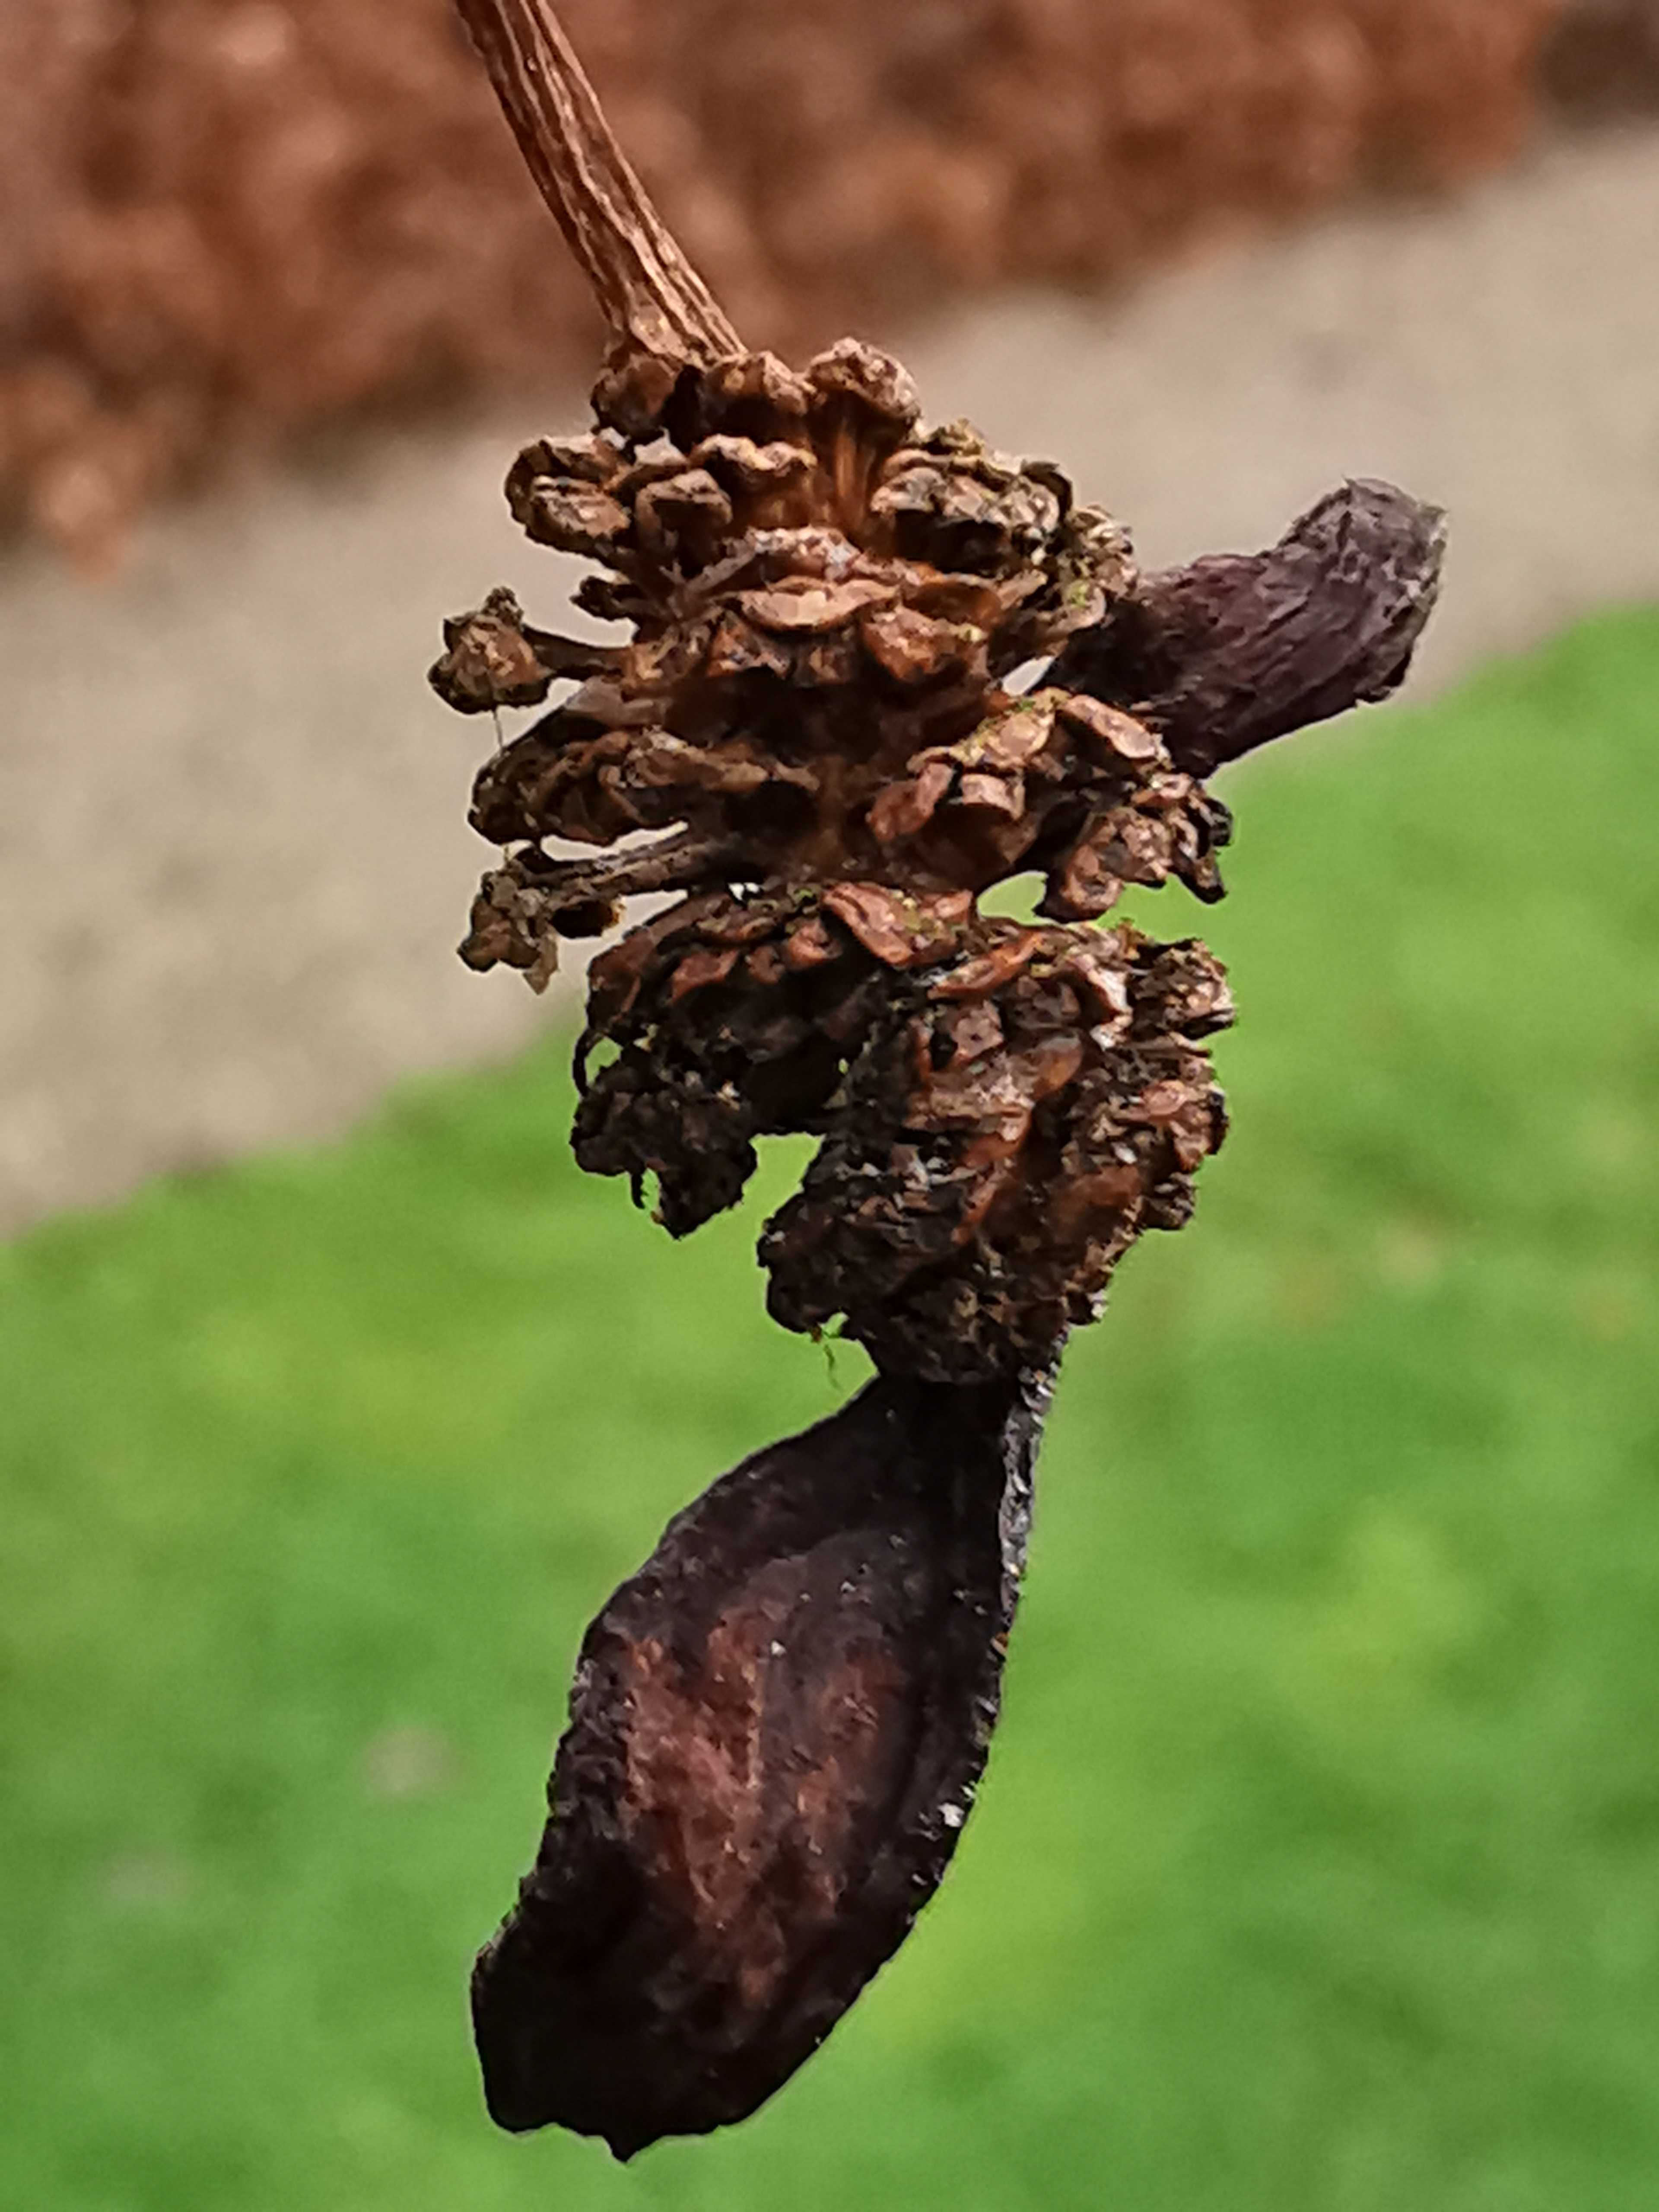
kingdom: Fungi
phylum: Ascomycota
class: Taphrinomycetes
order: Taphrinales
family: Taphrinaceae
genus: Taphrina
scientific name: Taphrina alni
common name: Alder tongue
